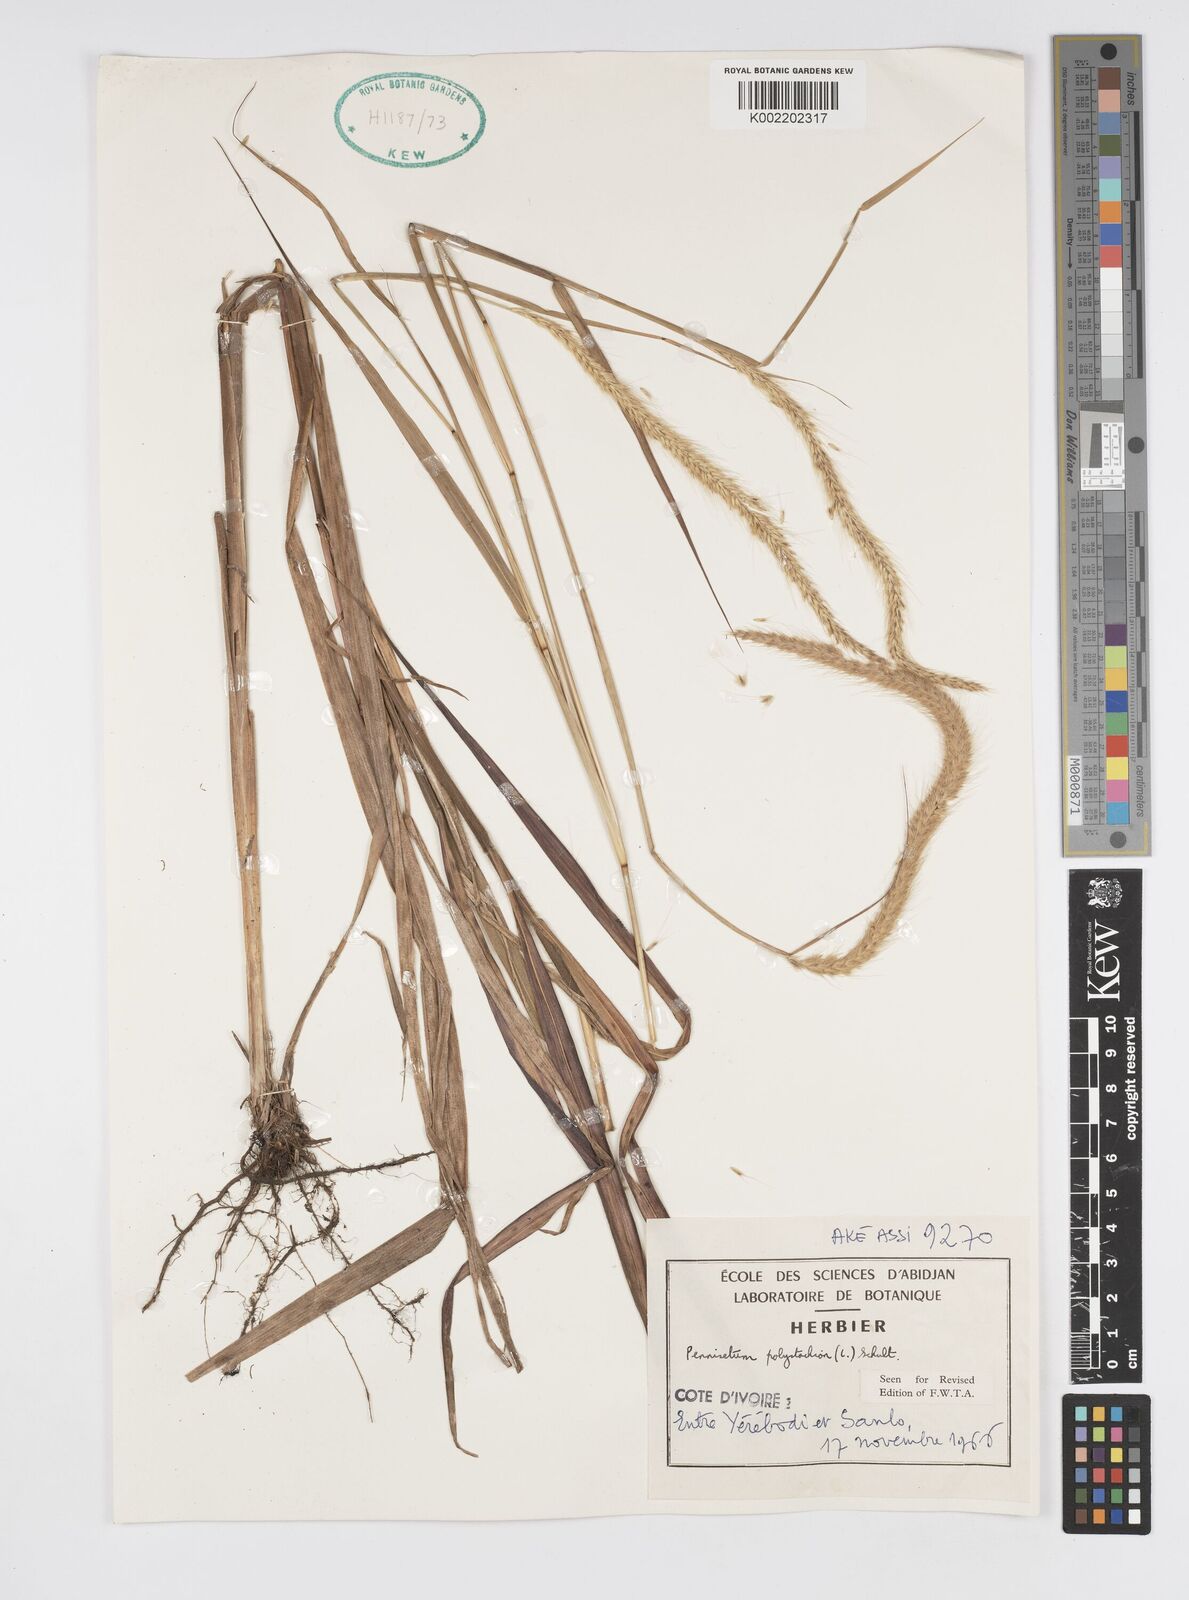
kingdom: Plantae
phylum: Tracheophyta
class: Liliopsida
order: Poales
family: Poaceae
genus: Setaria
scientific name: Setaria parviflora
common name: Knotroot bristle-grass
